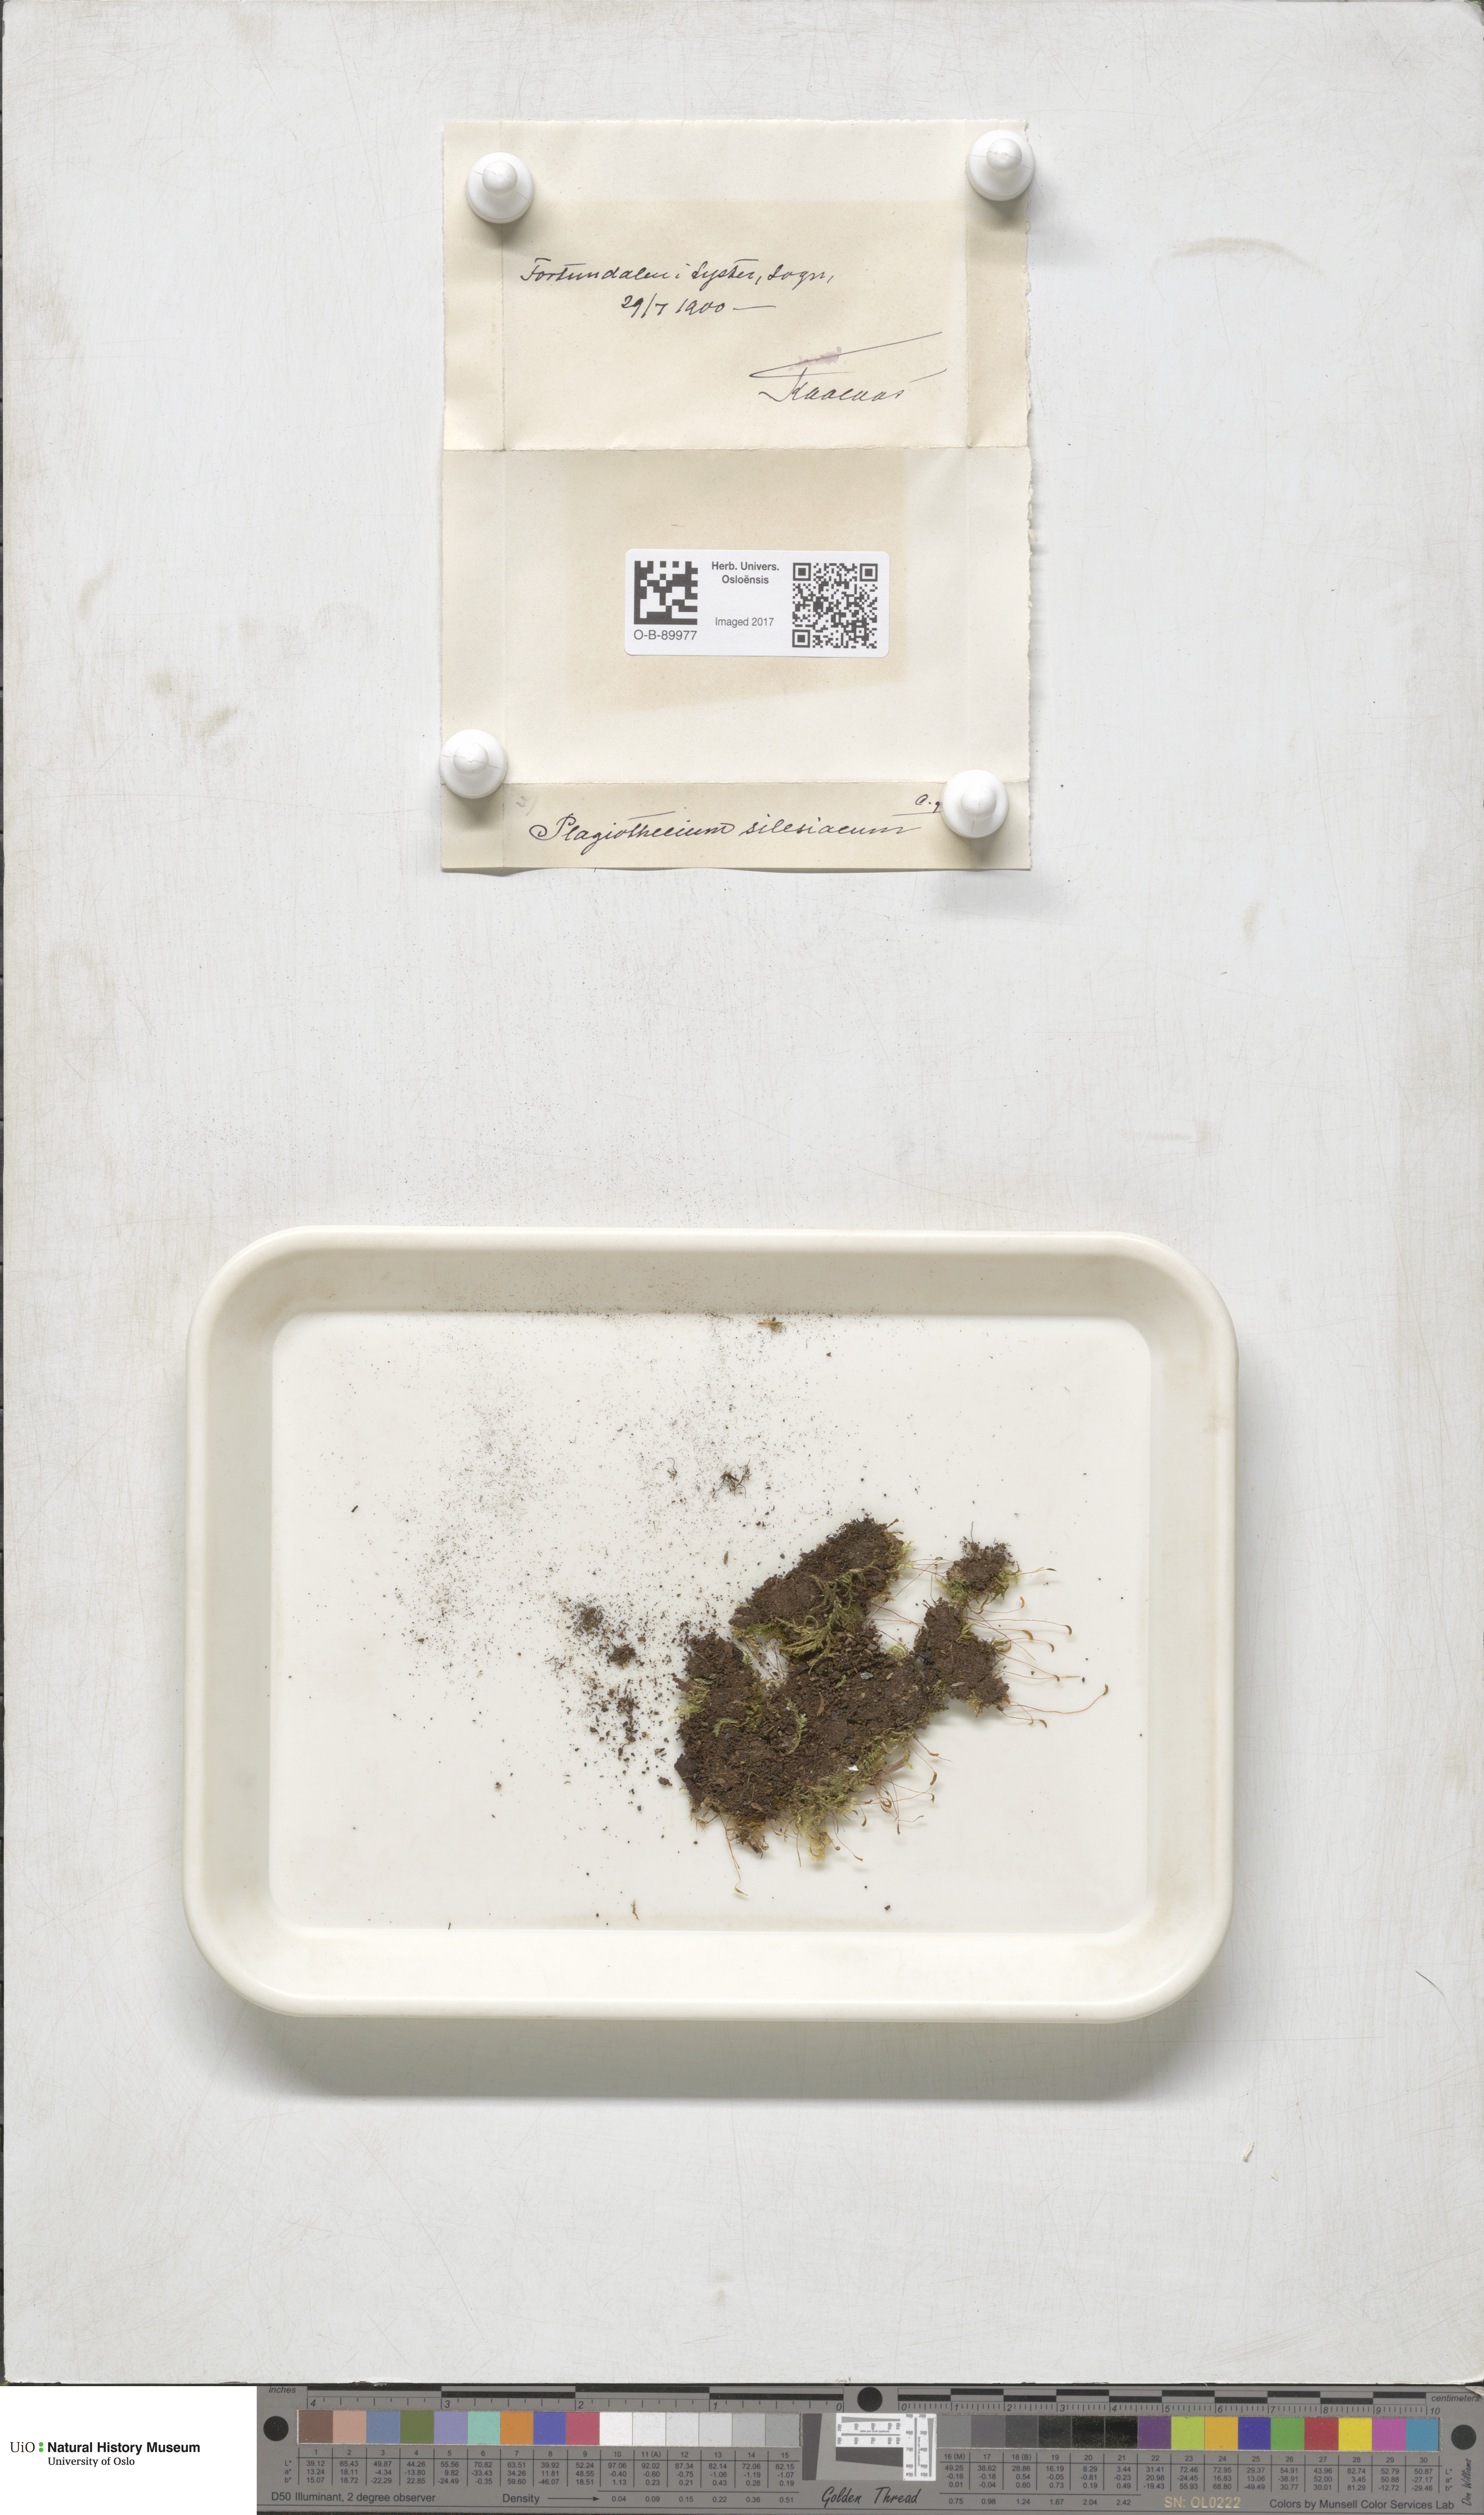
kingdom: Plantae
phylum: Bryophyta
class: Bryopsida
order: Hypnales
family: Plagiotheciaceae
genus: Herzogiella
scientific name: Herzogiella seligeri
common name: Silesian feather-moss
